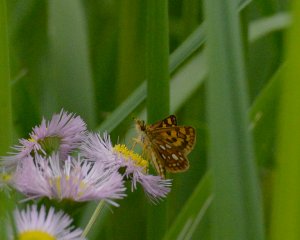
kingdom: Animalia
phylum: Arthropoda
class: Insecta
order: Lepidoptera
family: Hesperiidae
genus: Carterocephalus
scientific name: Carterocephalus palaemon
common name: Chequered Skipper
